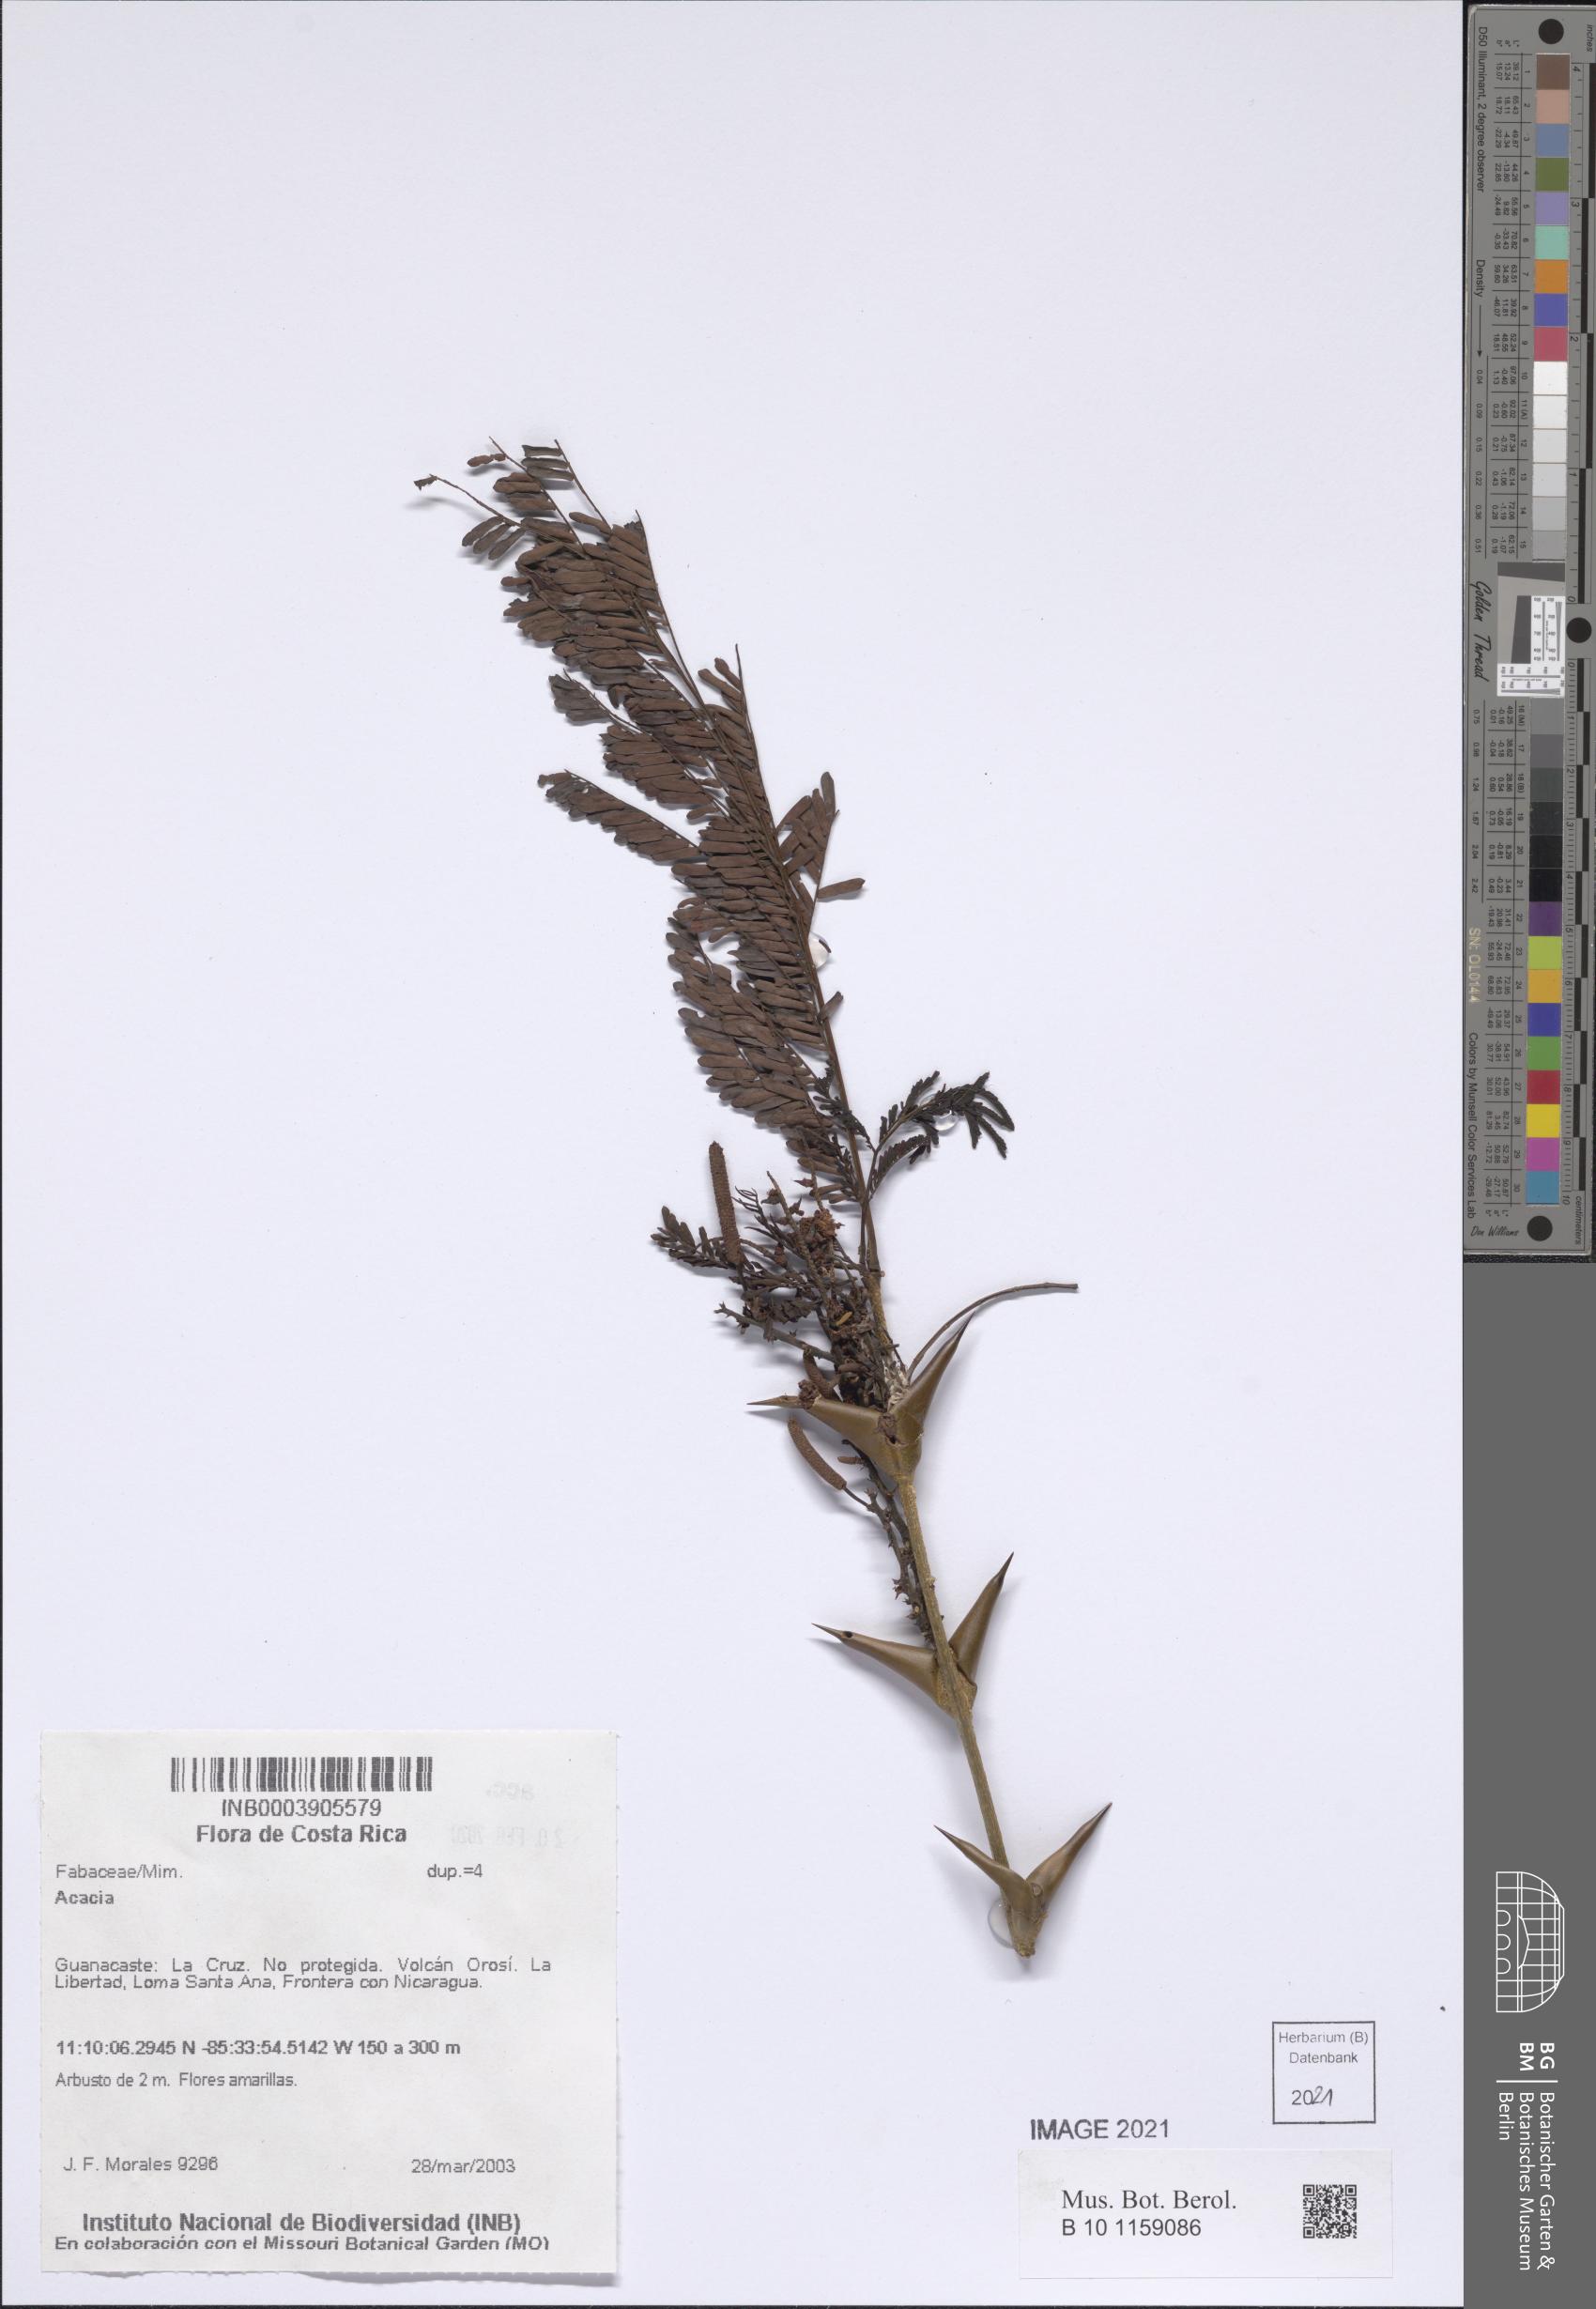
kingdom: Plantae
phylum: Tracheophyta
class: Magnoliopsida
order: Fabales
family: Fabaceae
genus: Acacia
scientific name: Acacia
